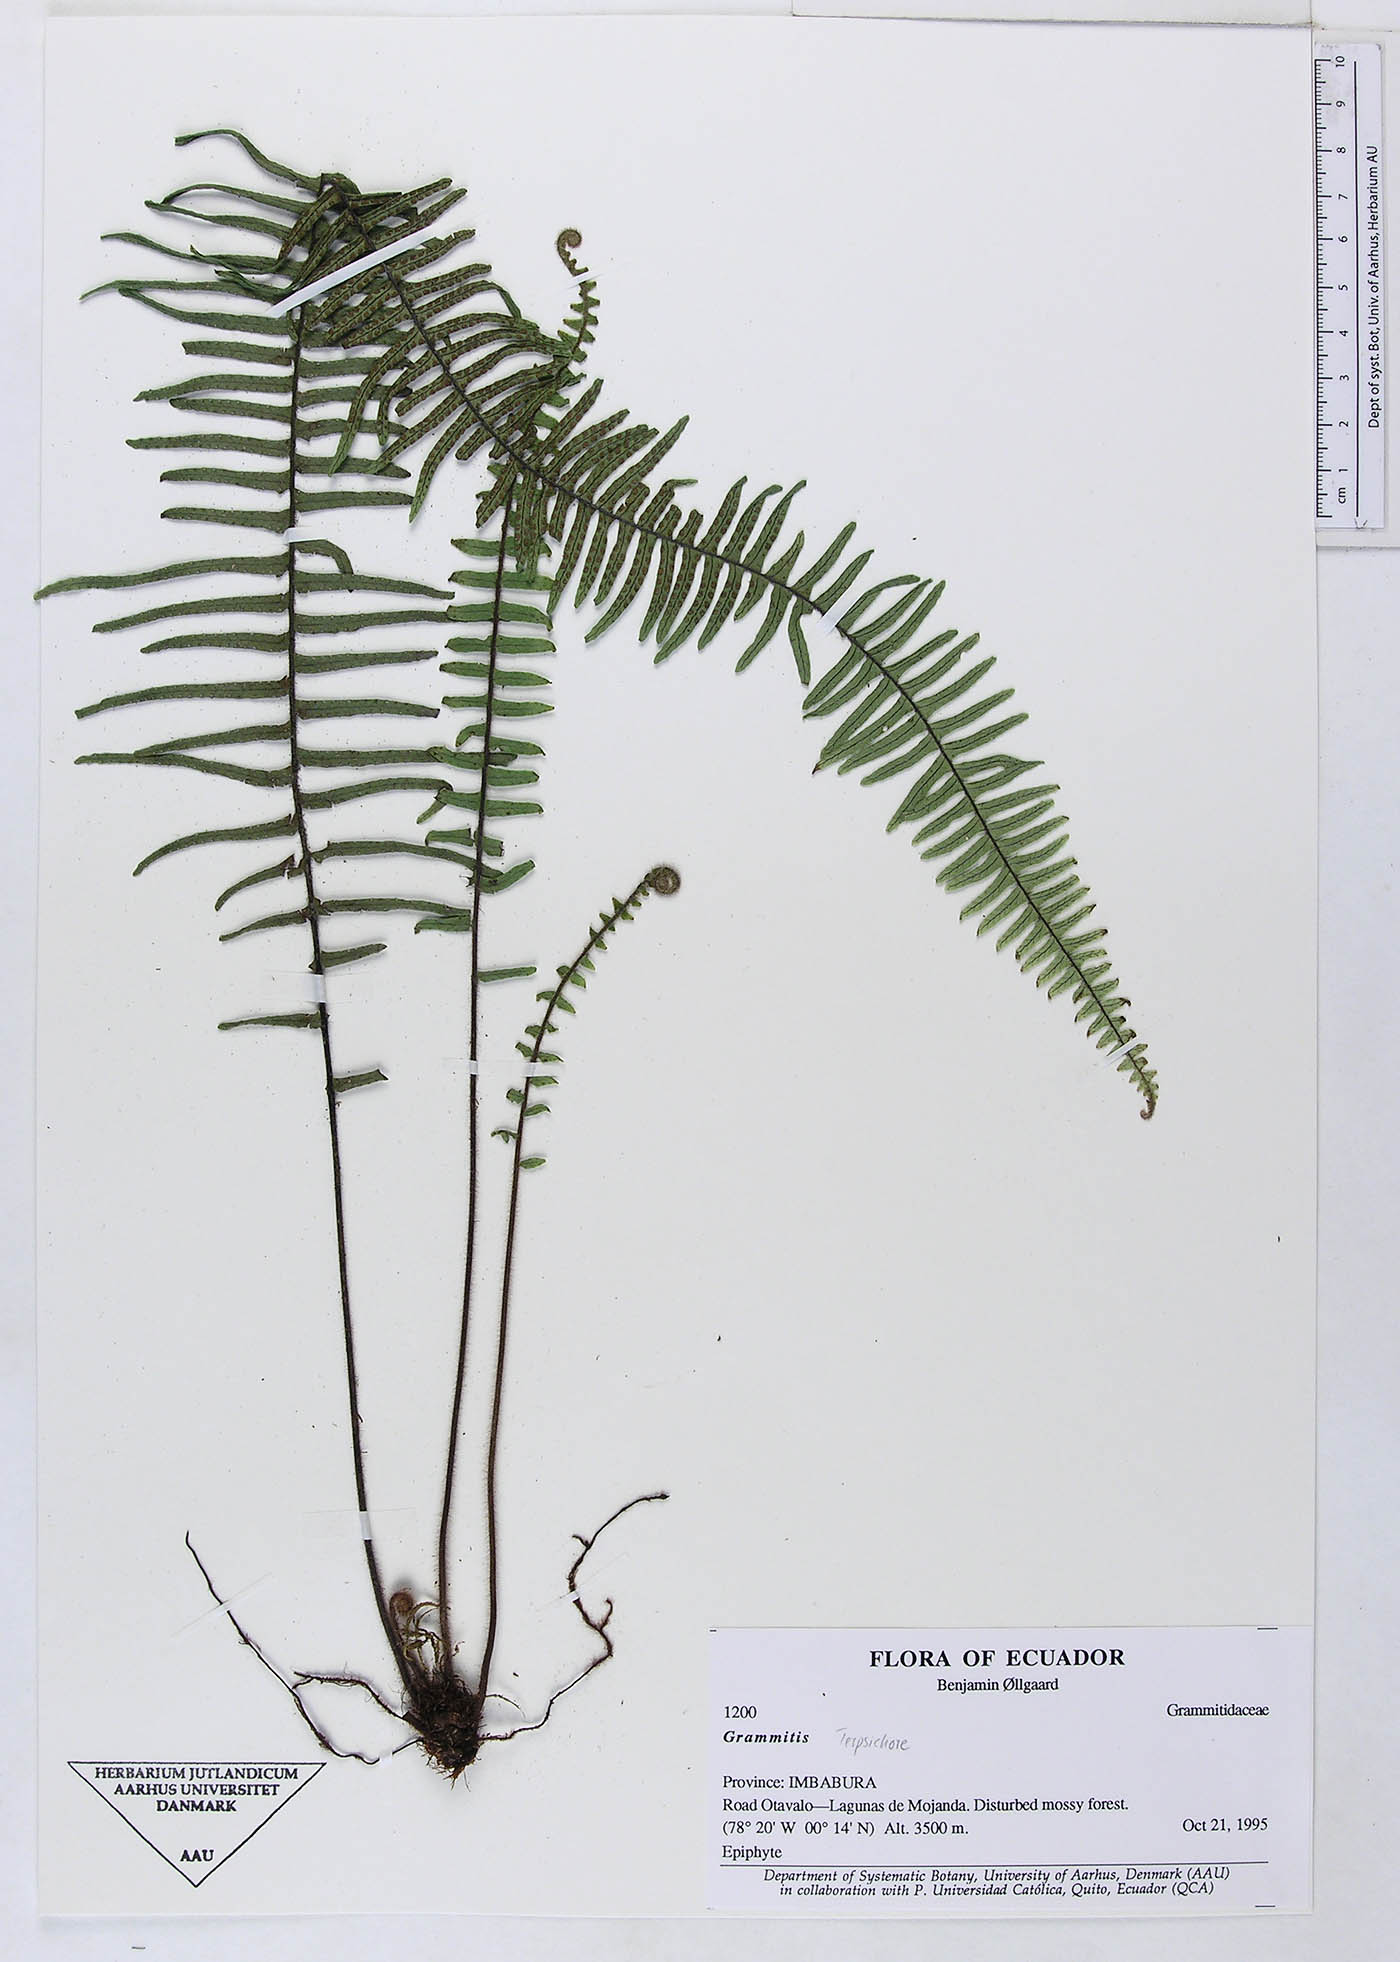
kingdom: Plantae
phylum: Tracheophyta
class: Polypodiopsida
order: Polypodiales
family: Polypodiaceae
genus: Grammitis
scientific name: Grammitis
